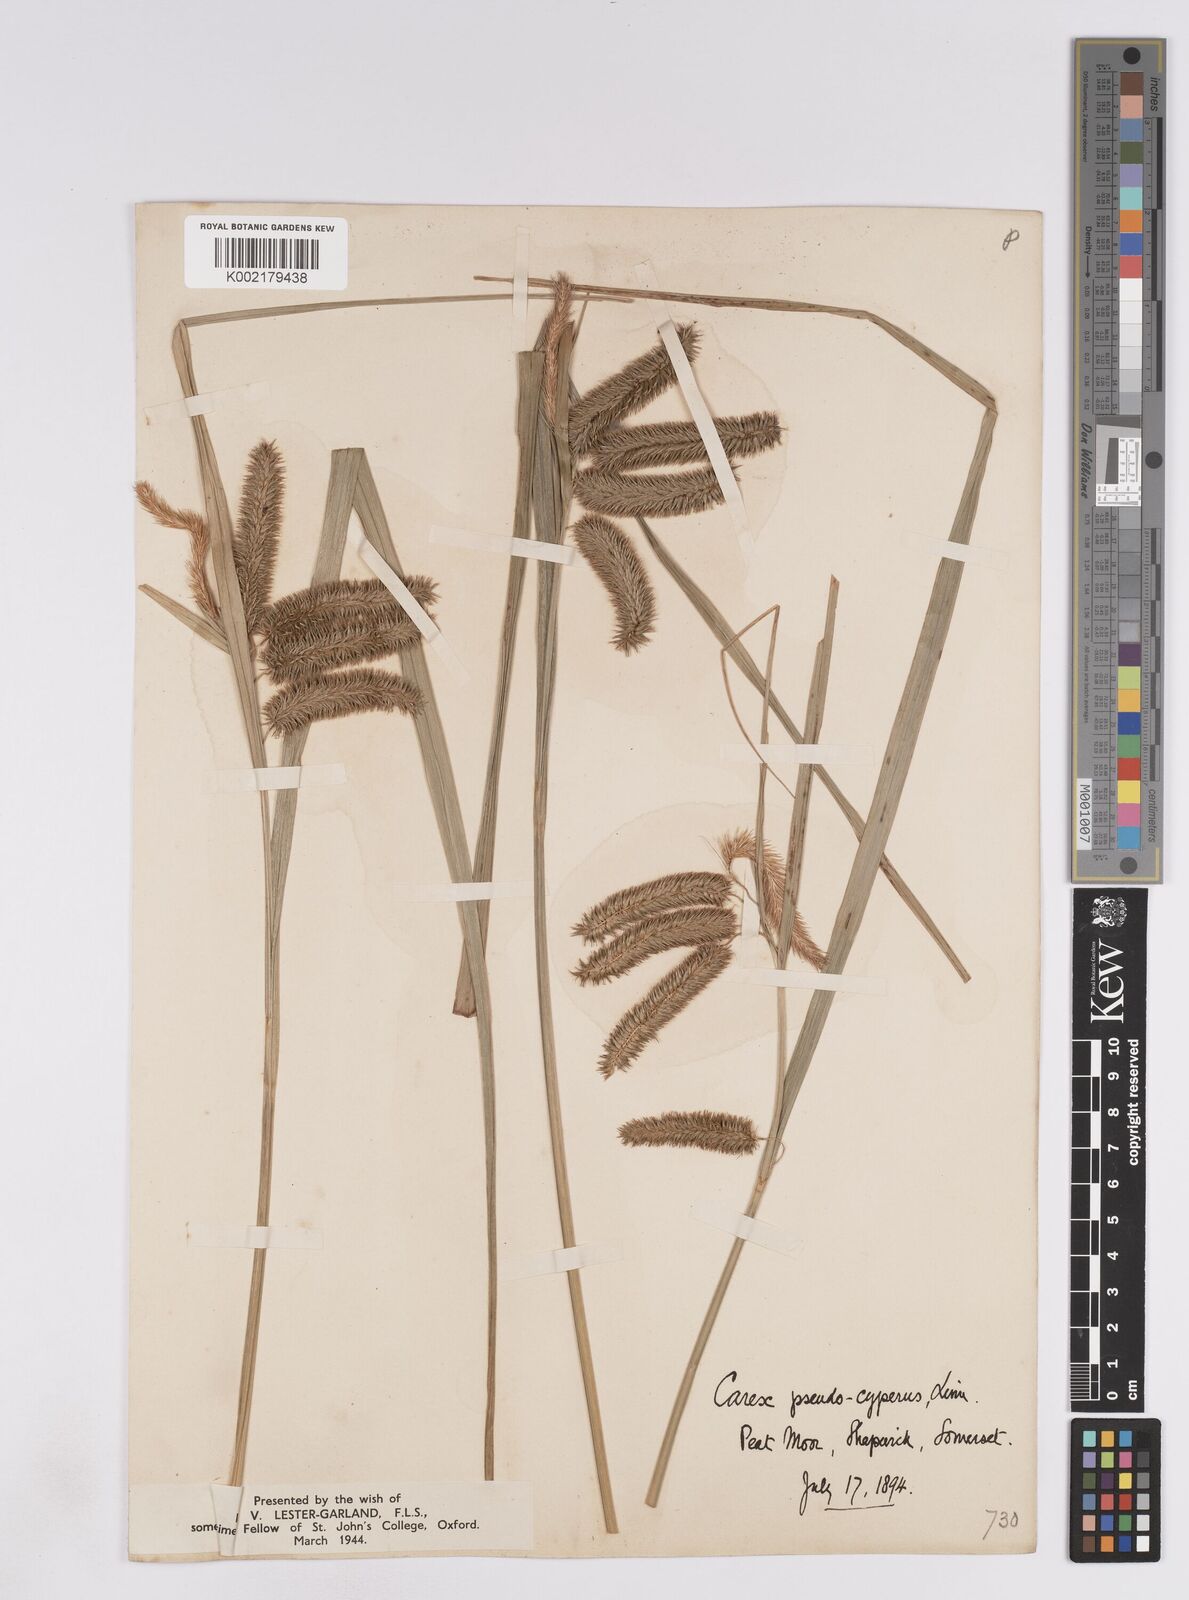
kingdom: Plantae
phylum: Tracheophyta
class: Liliopsida
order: Poales
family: Cyperaceae
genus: Carex
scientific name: Carex pseudocyperus
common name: Cyperus sedge
